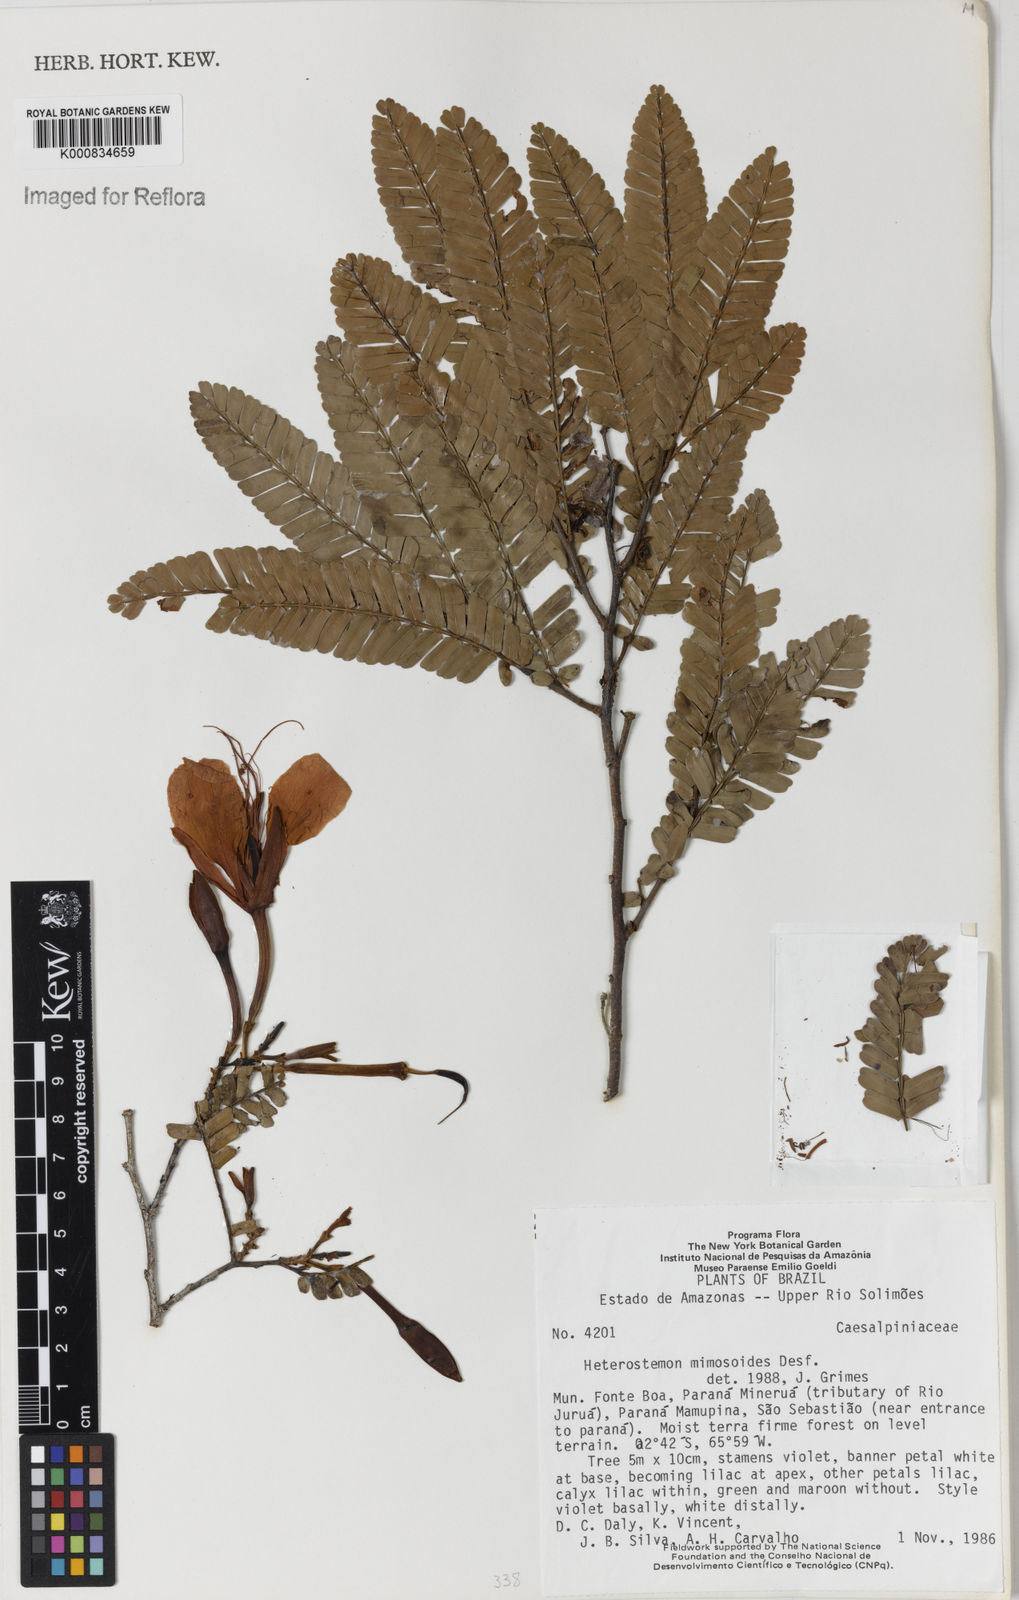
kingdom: Plantae
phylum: Tracheophyta
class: Magnoliopsida
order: Fabales
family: Fabaceae
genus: Heterostemon
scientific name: Heterostemon mimosoides
